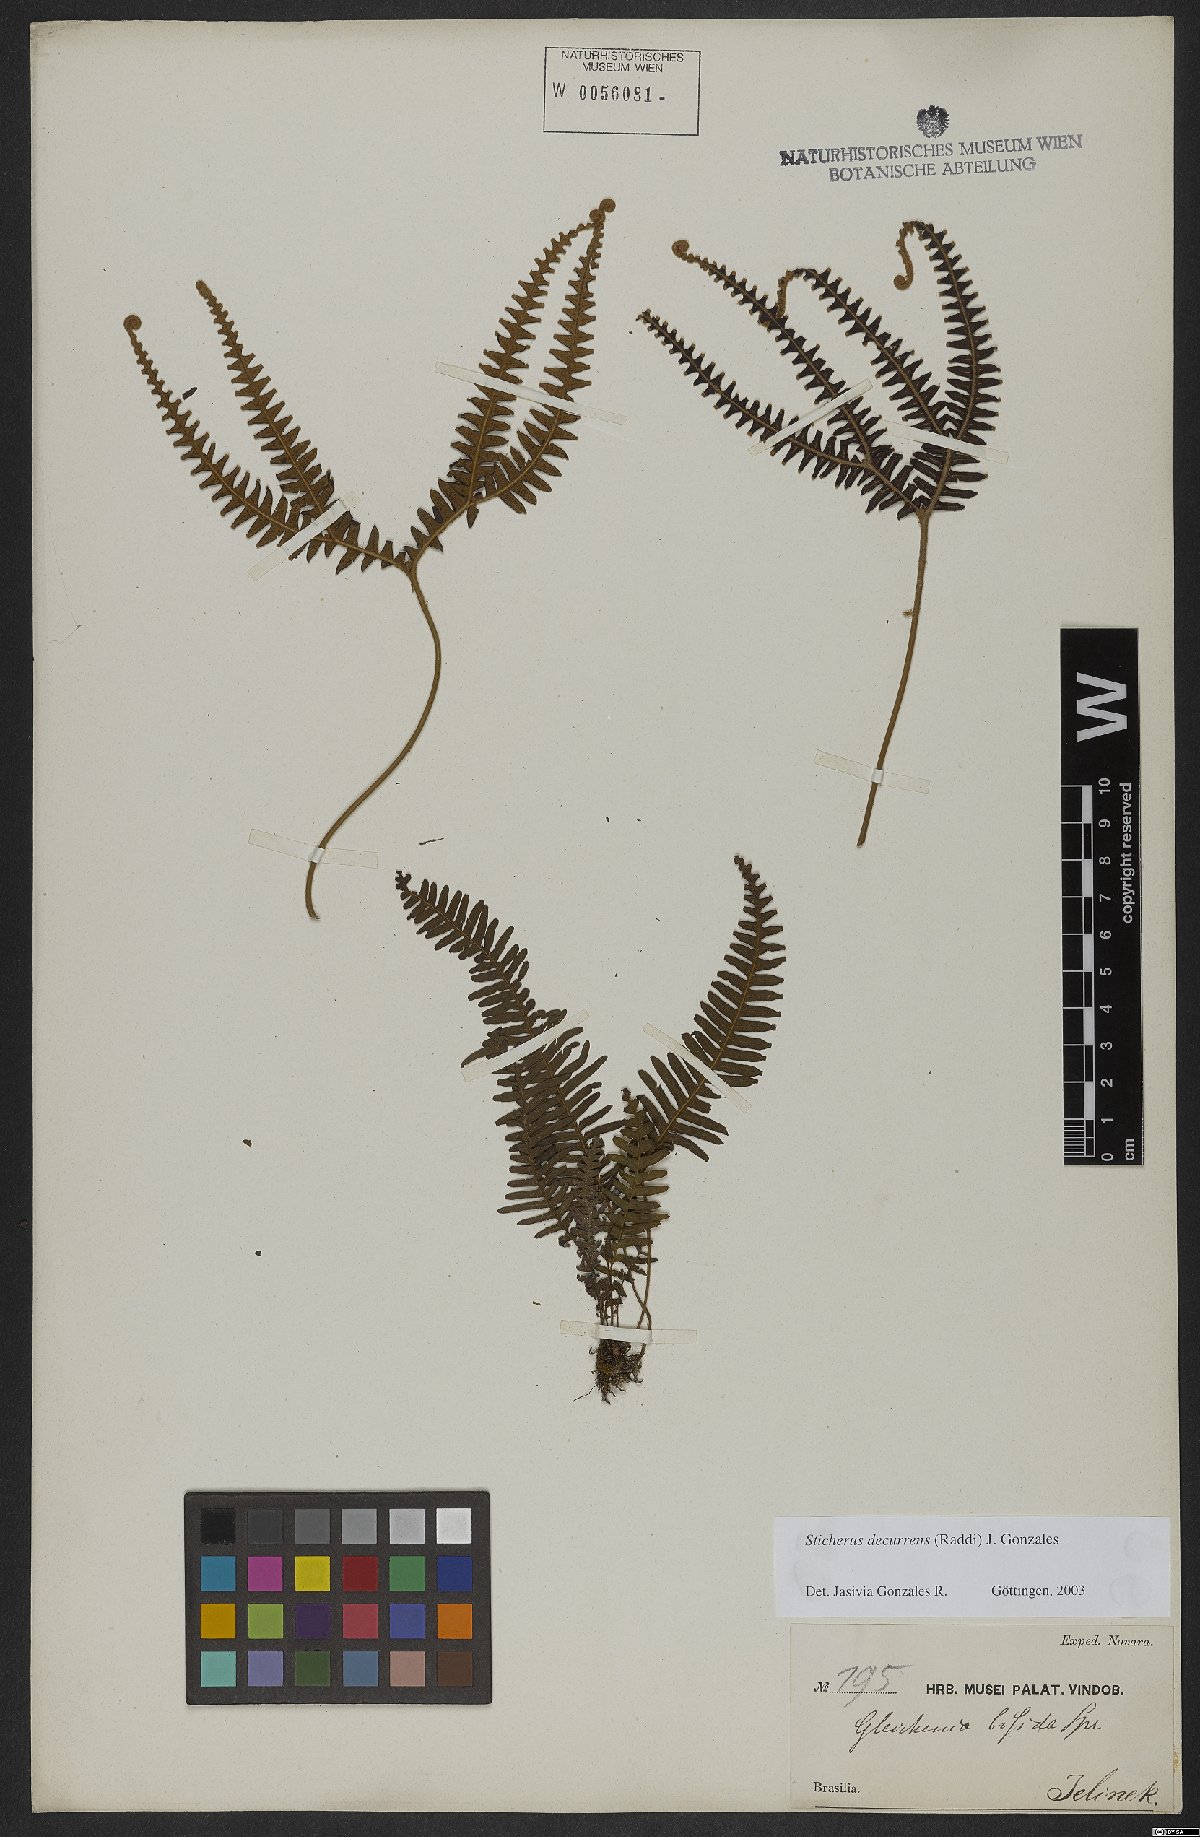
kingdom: Plantae
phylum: Tracheophyta
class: Polypodiopsida
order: Gleicheniales
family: Gleicheniaceae
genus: Sticherus
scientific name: Sticherus decurrens
